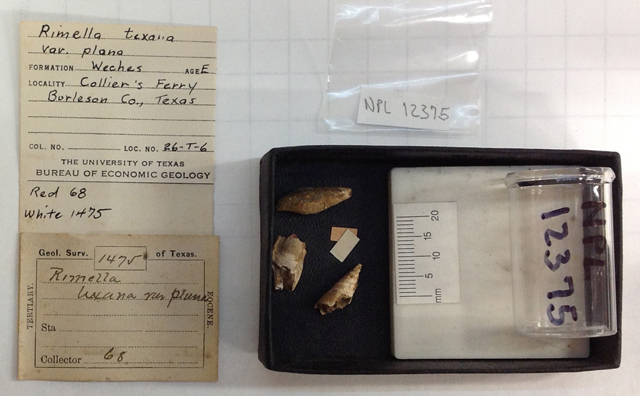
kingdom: Animalia
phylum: Mollusca
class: Gastropoda
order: Littorinimorpha
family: Rostellariidae
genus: Ectinochilus
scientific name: Ectinochilus texanum
